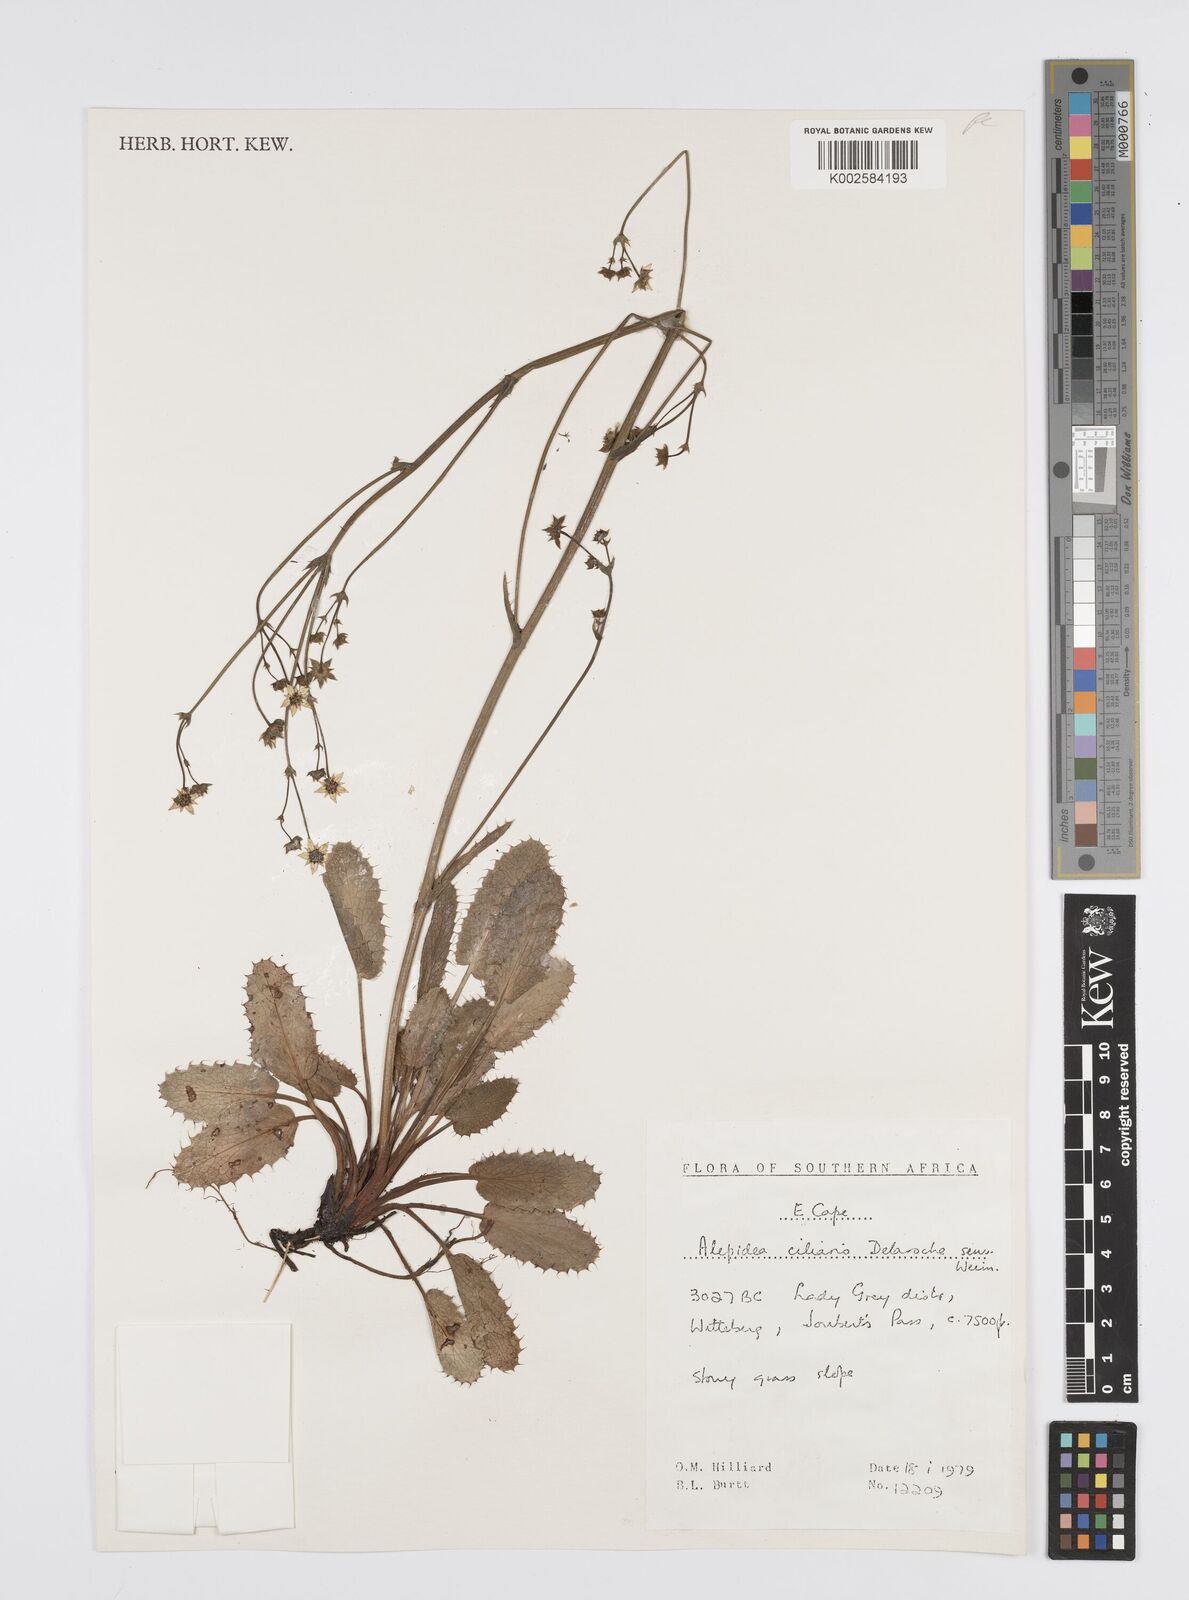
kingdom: Plantae
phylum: Tracheophyta
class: Magnoliopsida
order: Apiales
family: Apiaceae
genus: Alepidea
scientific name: Alepidea capensis
